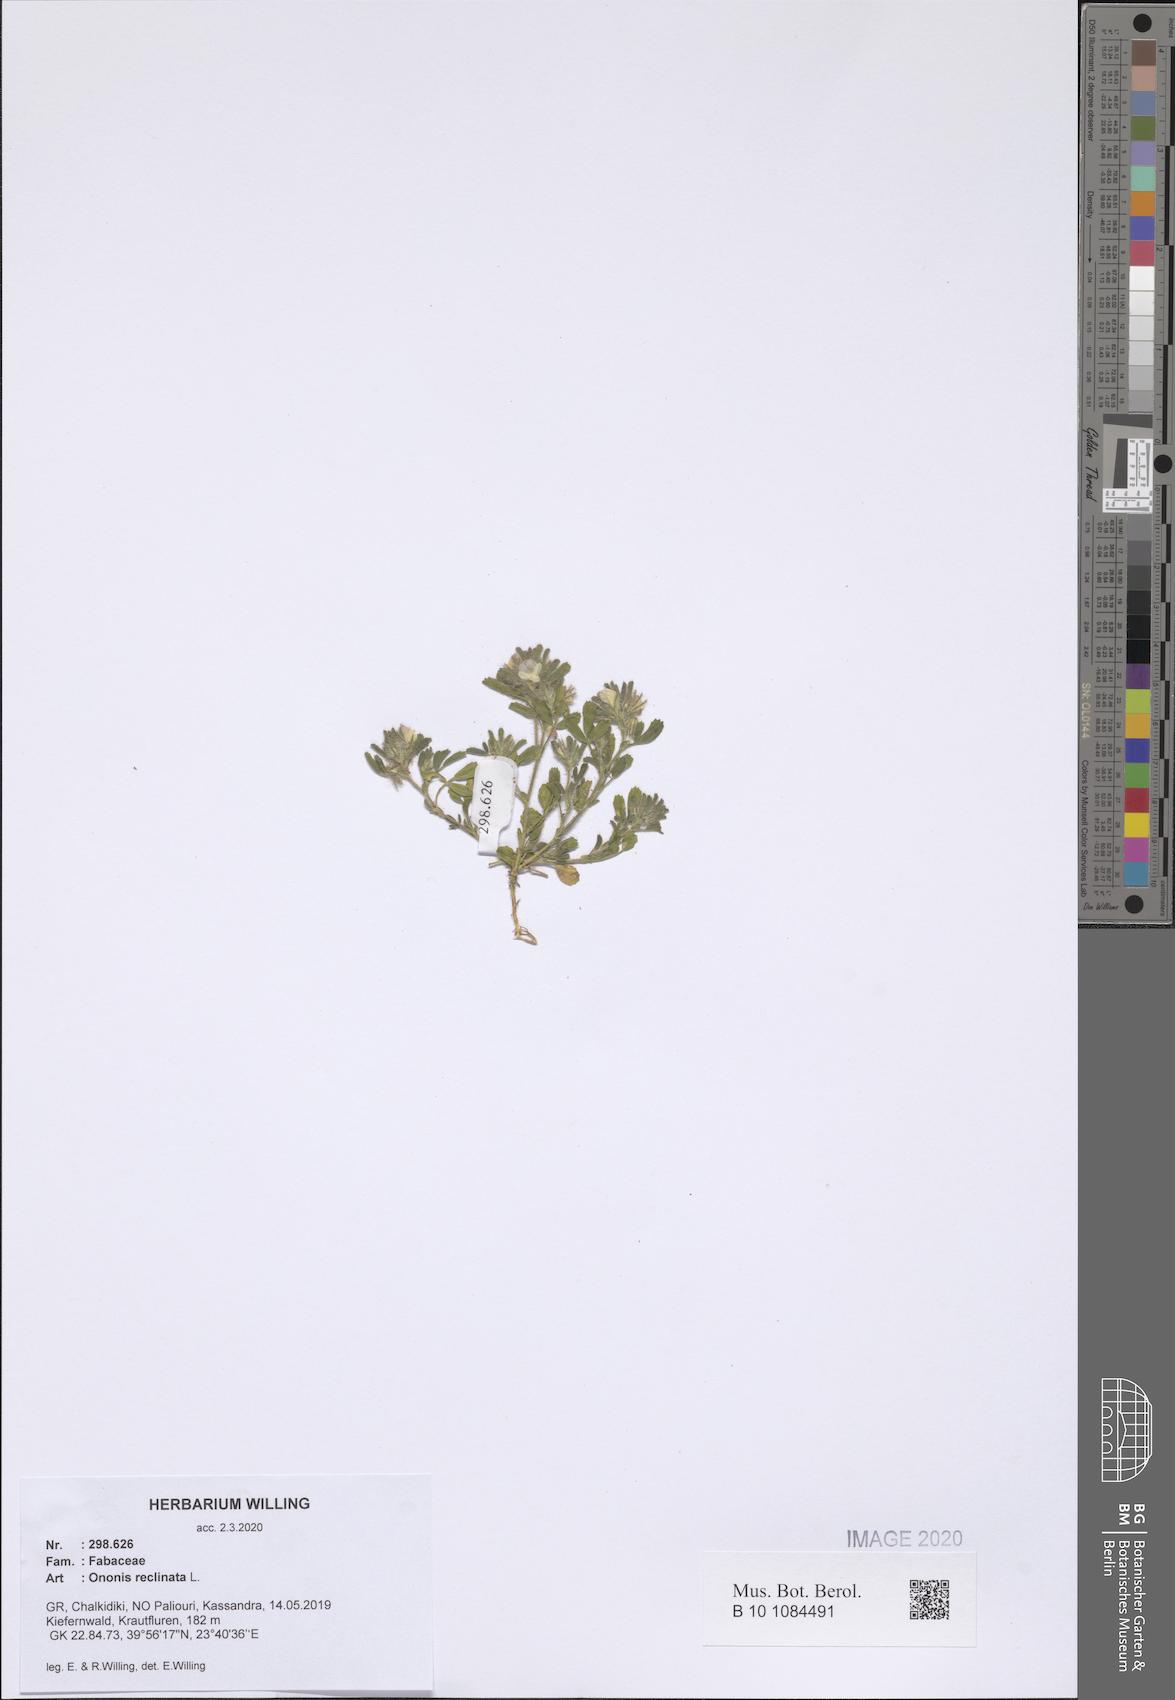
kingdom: Plantae
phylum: Tracheophyta
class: Magnoliopsida
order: Fabales
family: Fabaceae
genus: Ononis
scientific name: Ononis reclinata
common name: Small restharrow
